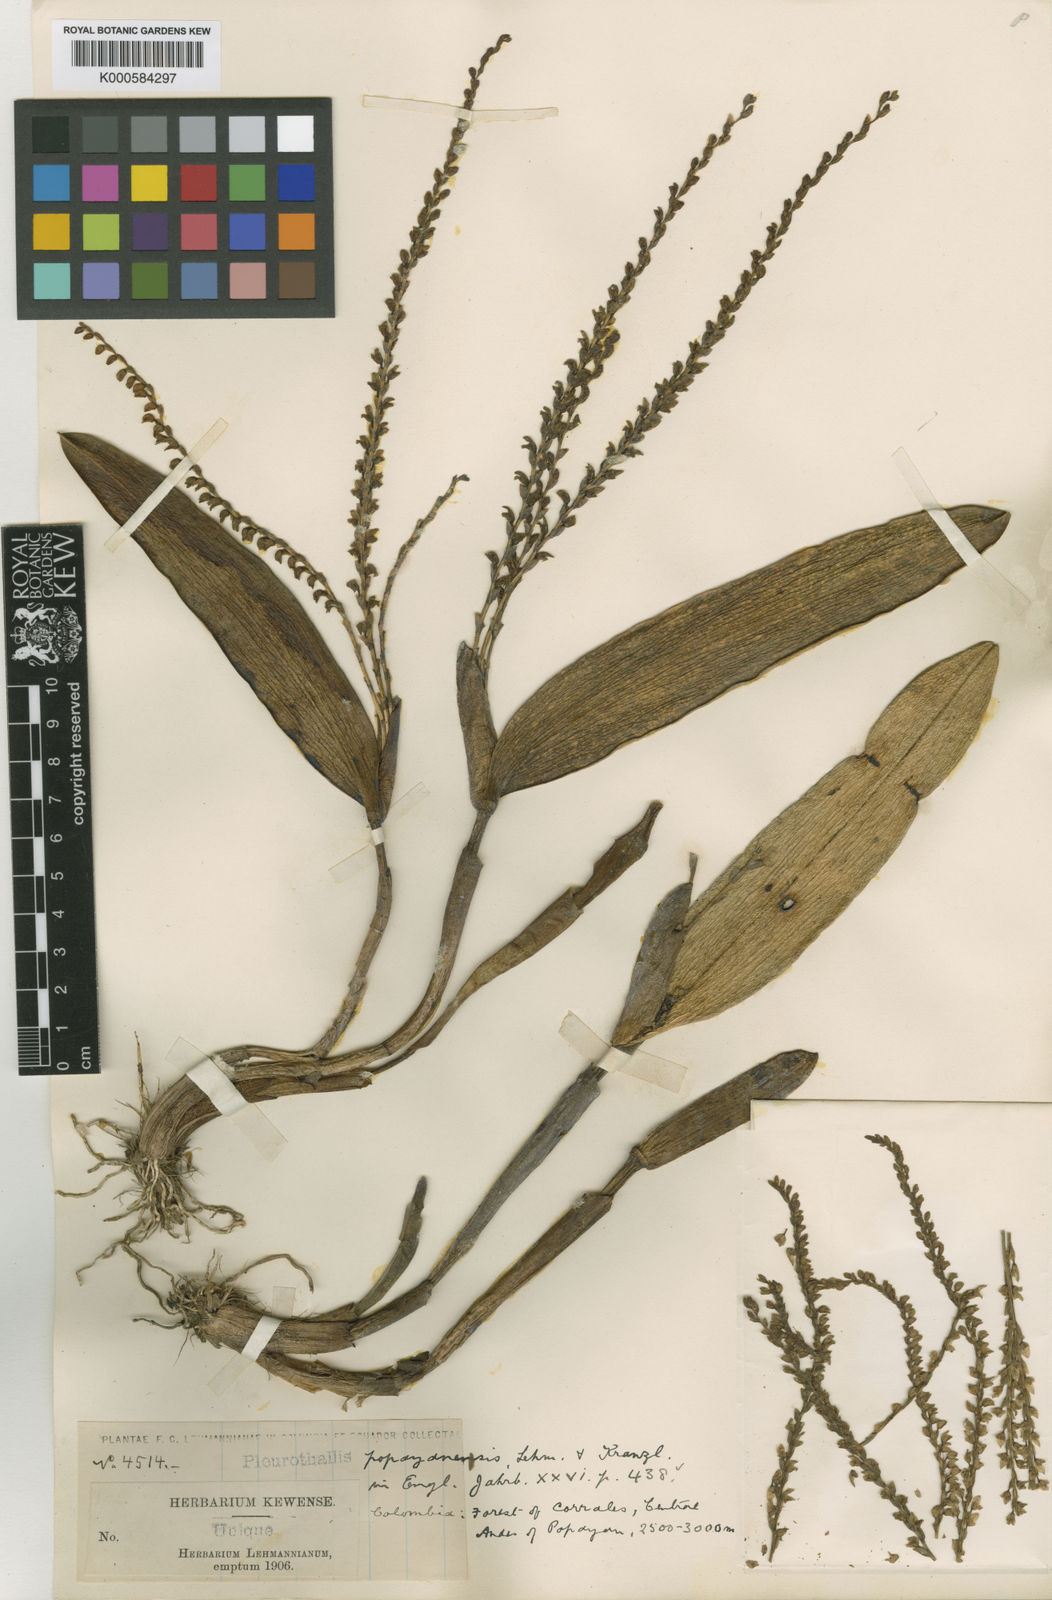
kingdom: Plantae
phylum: Tracheophyta
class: Liliopsida
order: Asparagales
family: Orchidaceae
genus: Stelis
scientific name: Stelis globosa
